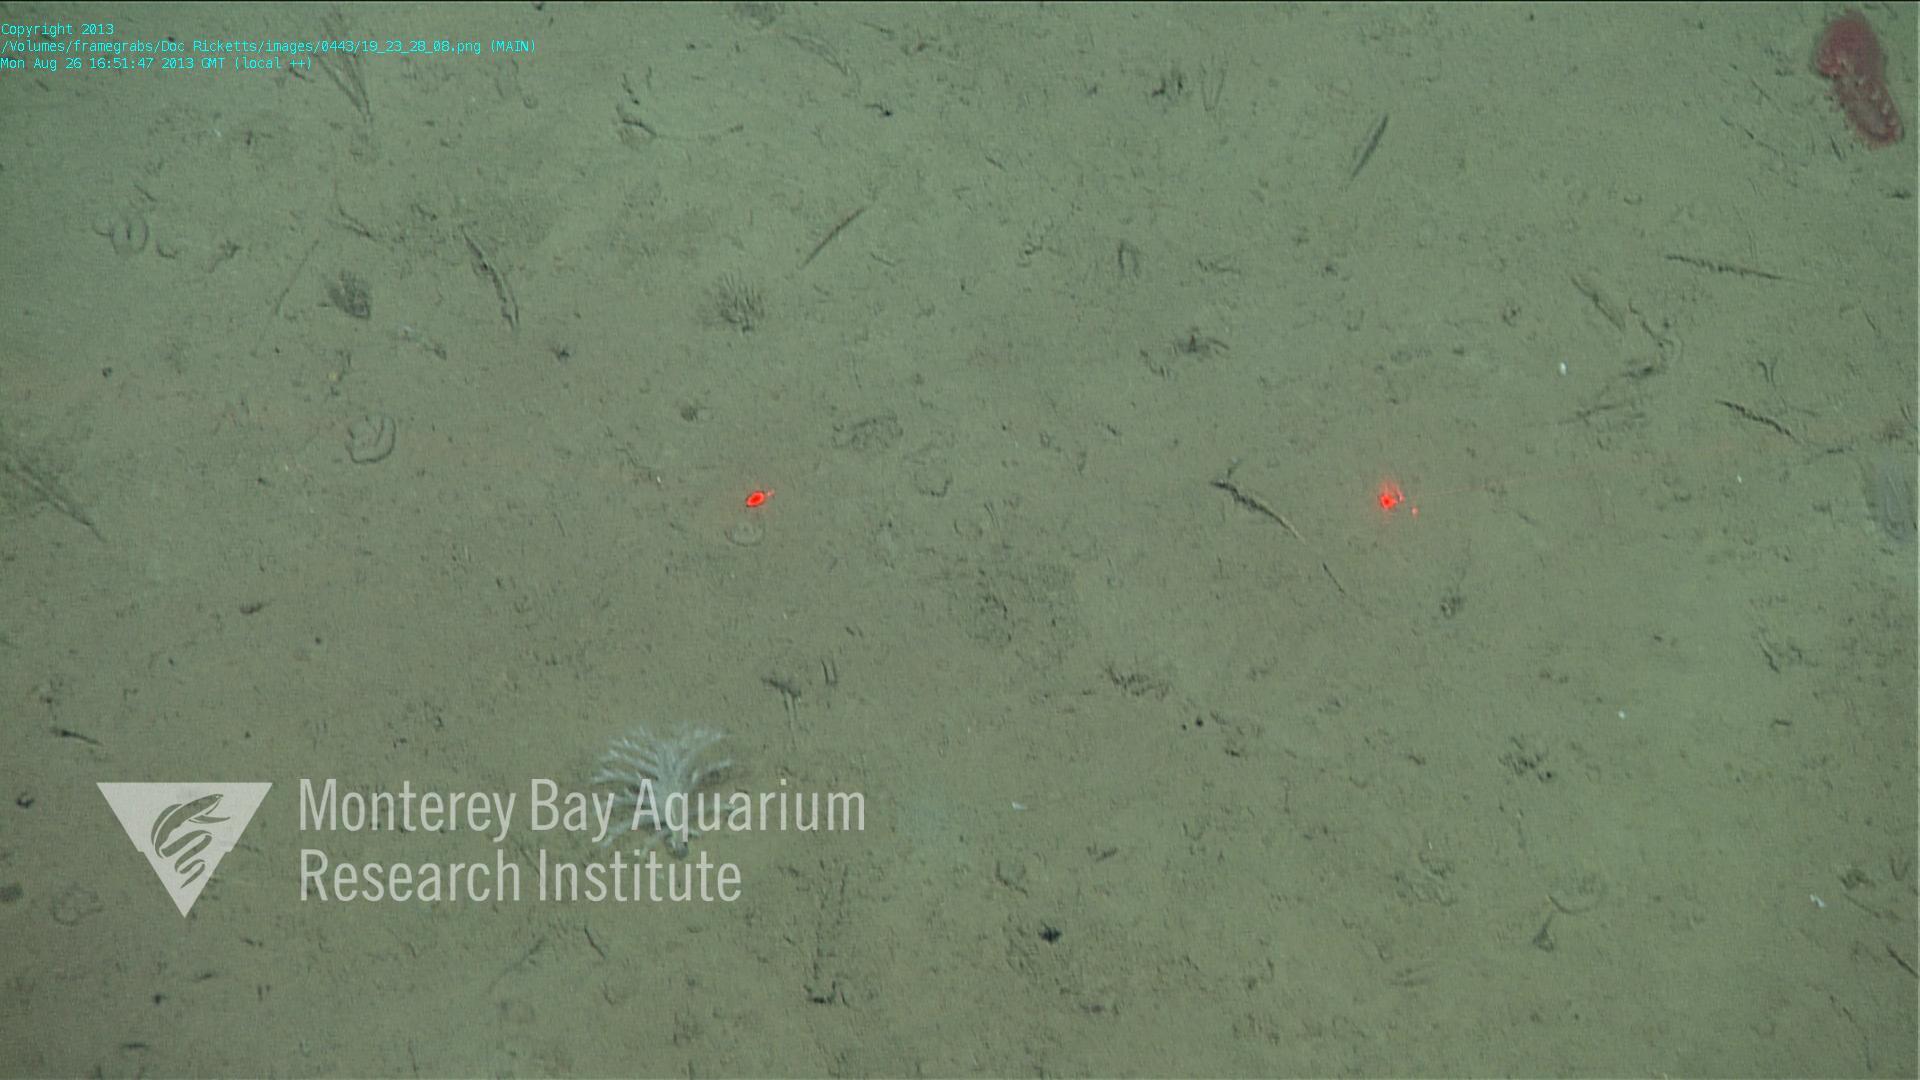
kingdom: Animalia
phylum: Cnidaria
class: Anthozoa
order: Scleralcyonacea
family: Pennatulidae
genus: Pennatula
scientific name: Pennatula
